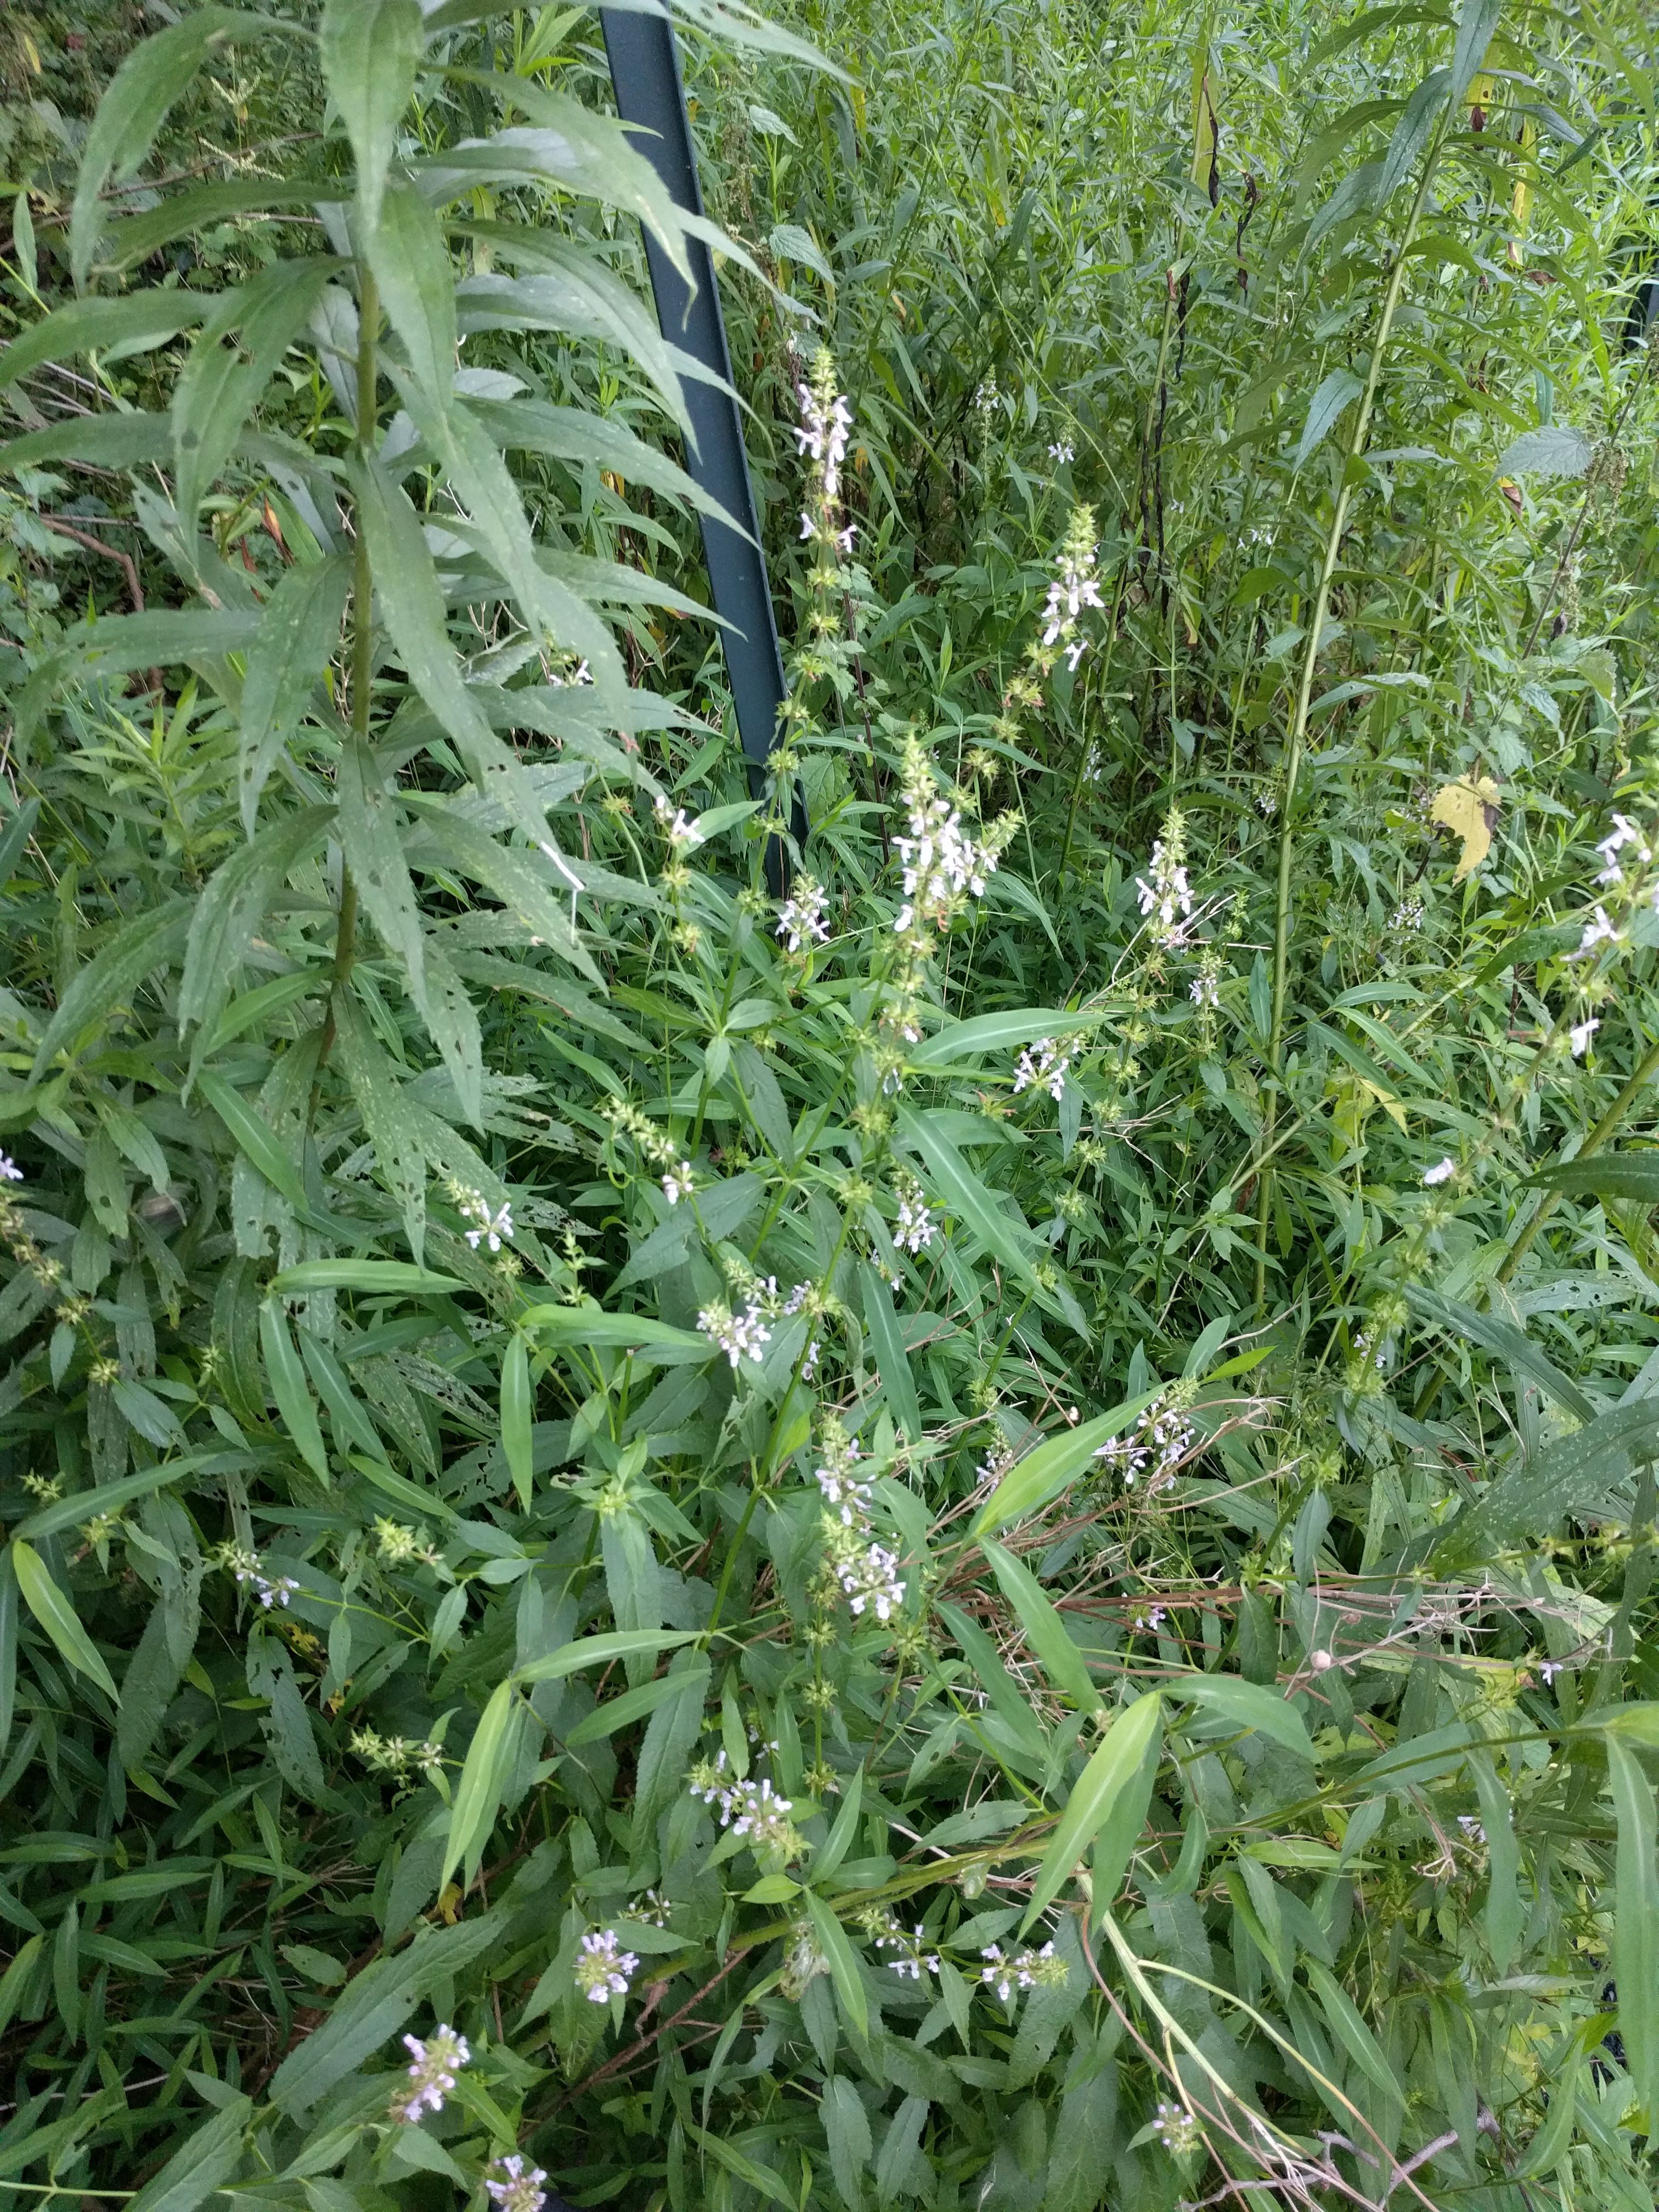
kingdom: Plantae
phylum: Tracheophyta
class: Magnoliopsida
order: Lamiales
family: Lamiaceae
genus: Stachys
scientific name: Stachys tenuifolia
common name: Smooth hedge-nettle
